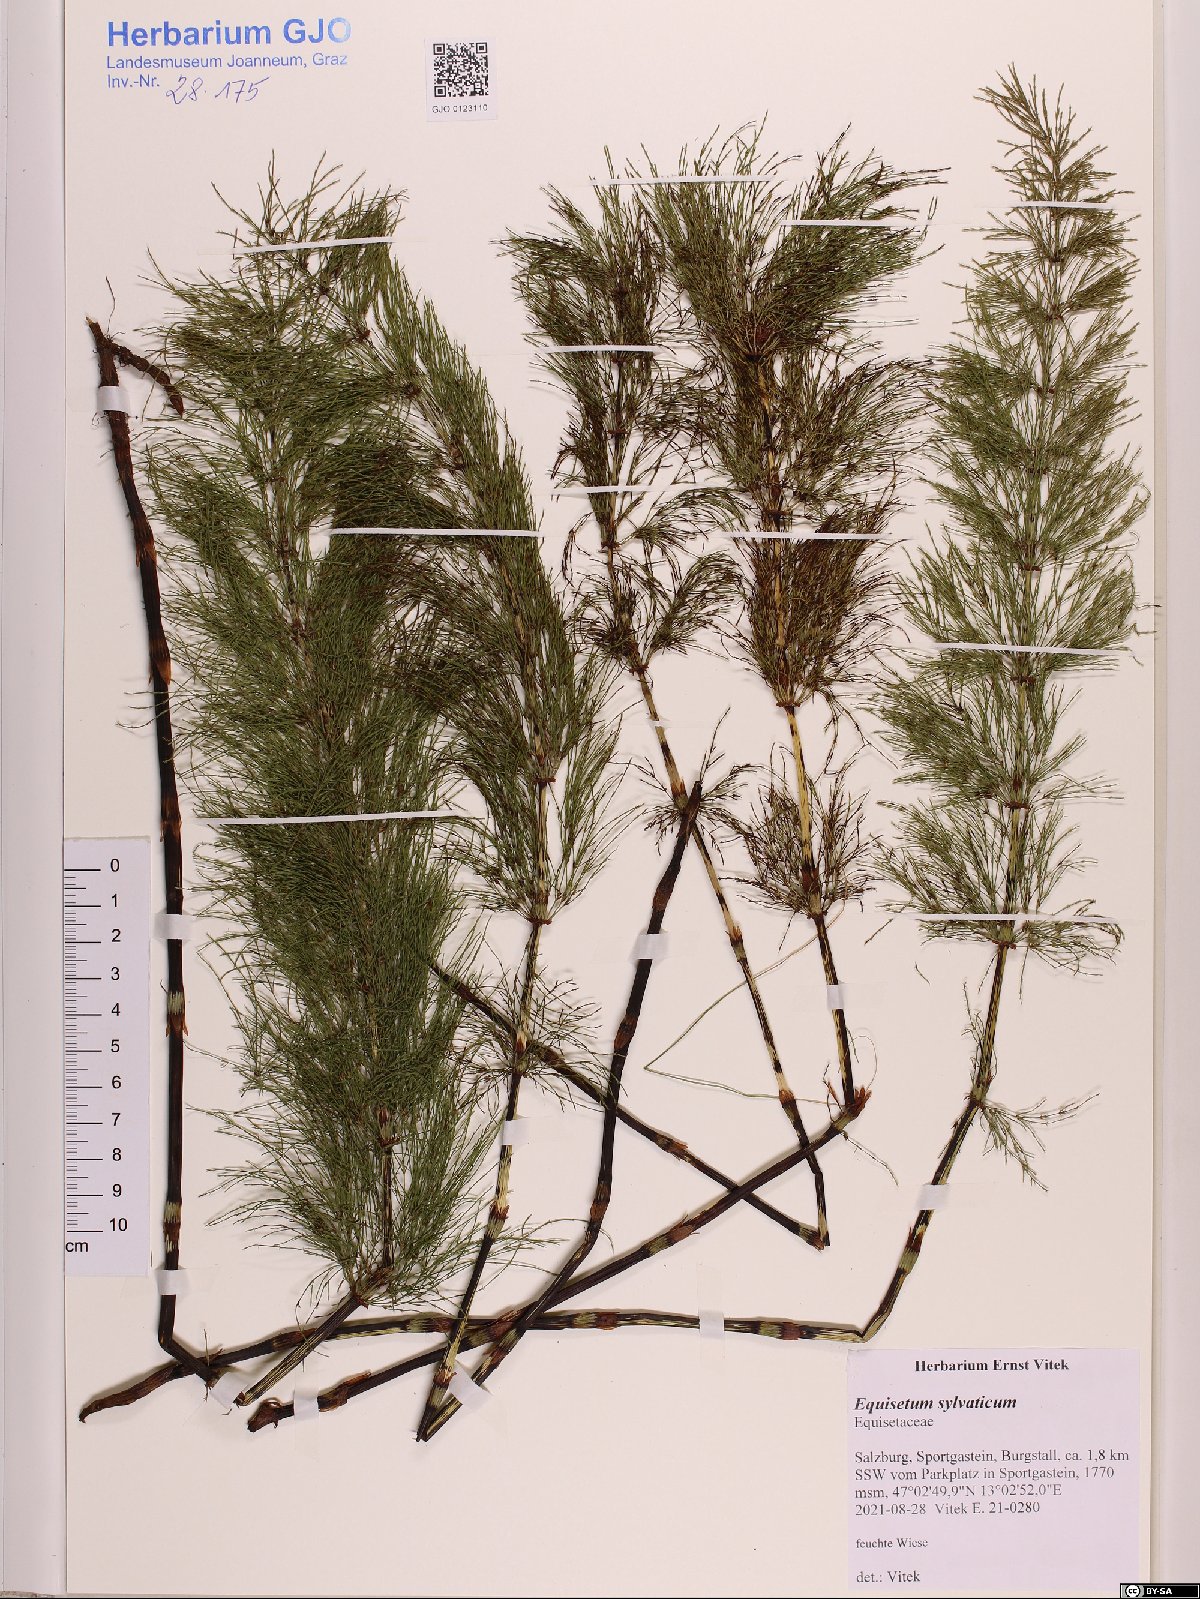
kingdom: Plantae
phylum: Tracheophyta
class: Polypodiopsida
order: Equisetales
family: Equisetaceae
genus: Equisetum
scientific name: Equisetum sylvaticum
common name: Wood horsetail
